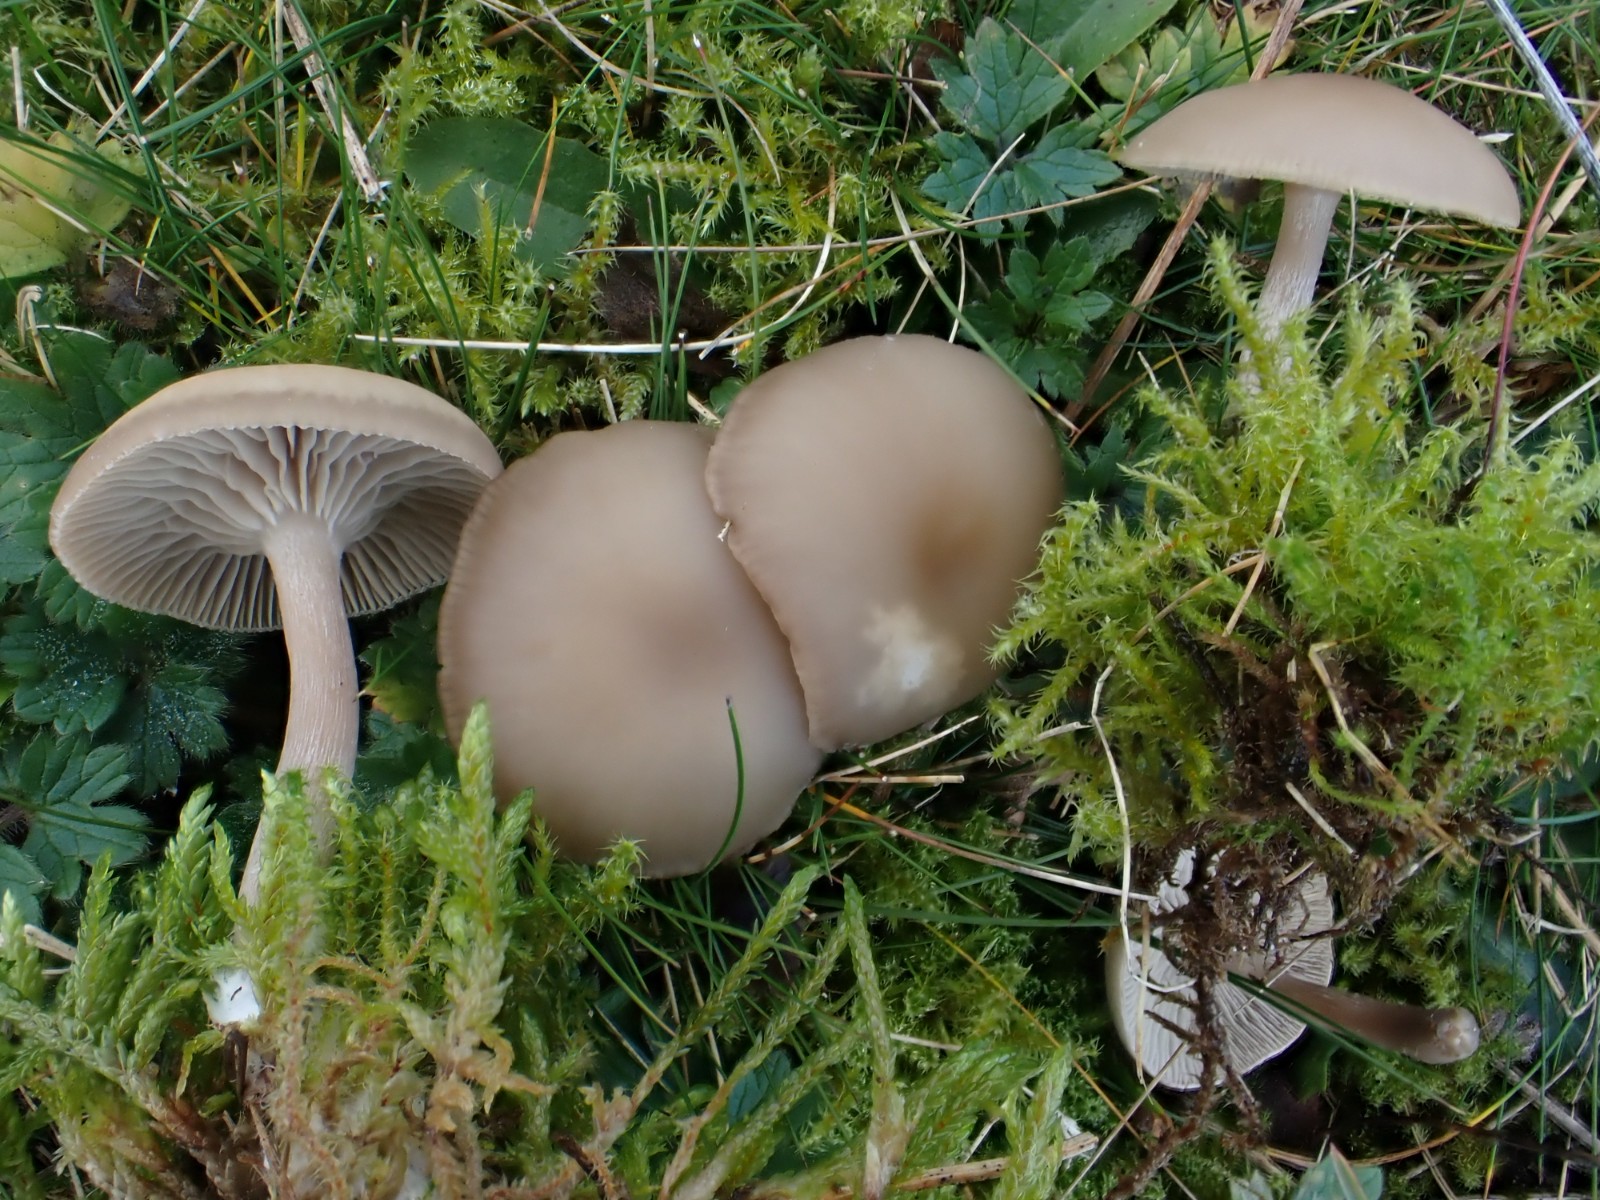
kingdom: Fungi
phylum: Basidiomycota
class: Agaricomycetes
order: Agaricales
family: Tricholomataceae
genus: Clitocybe
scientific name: Clitocybe
